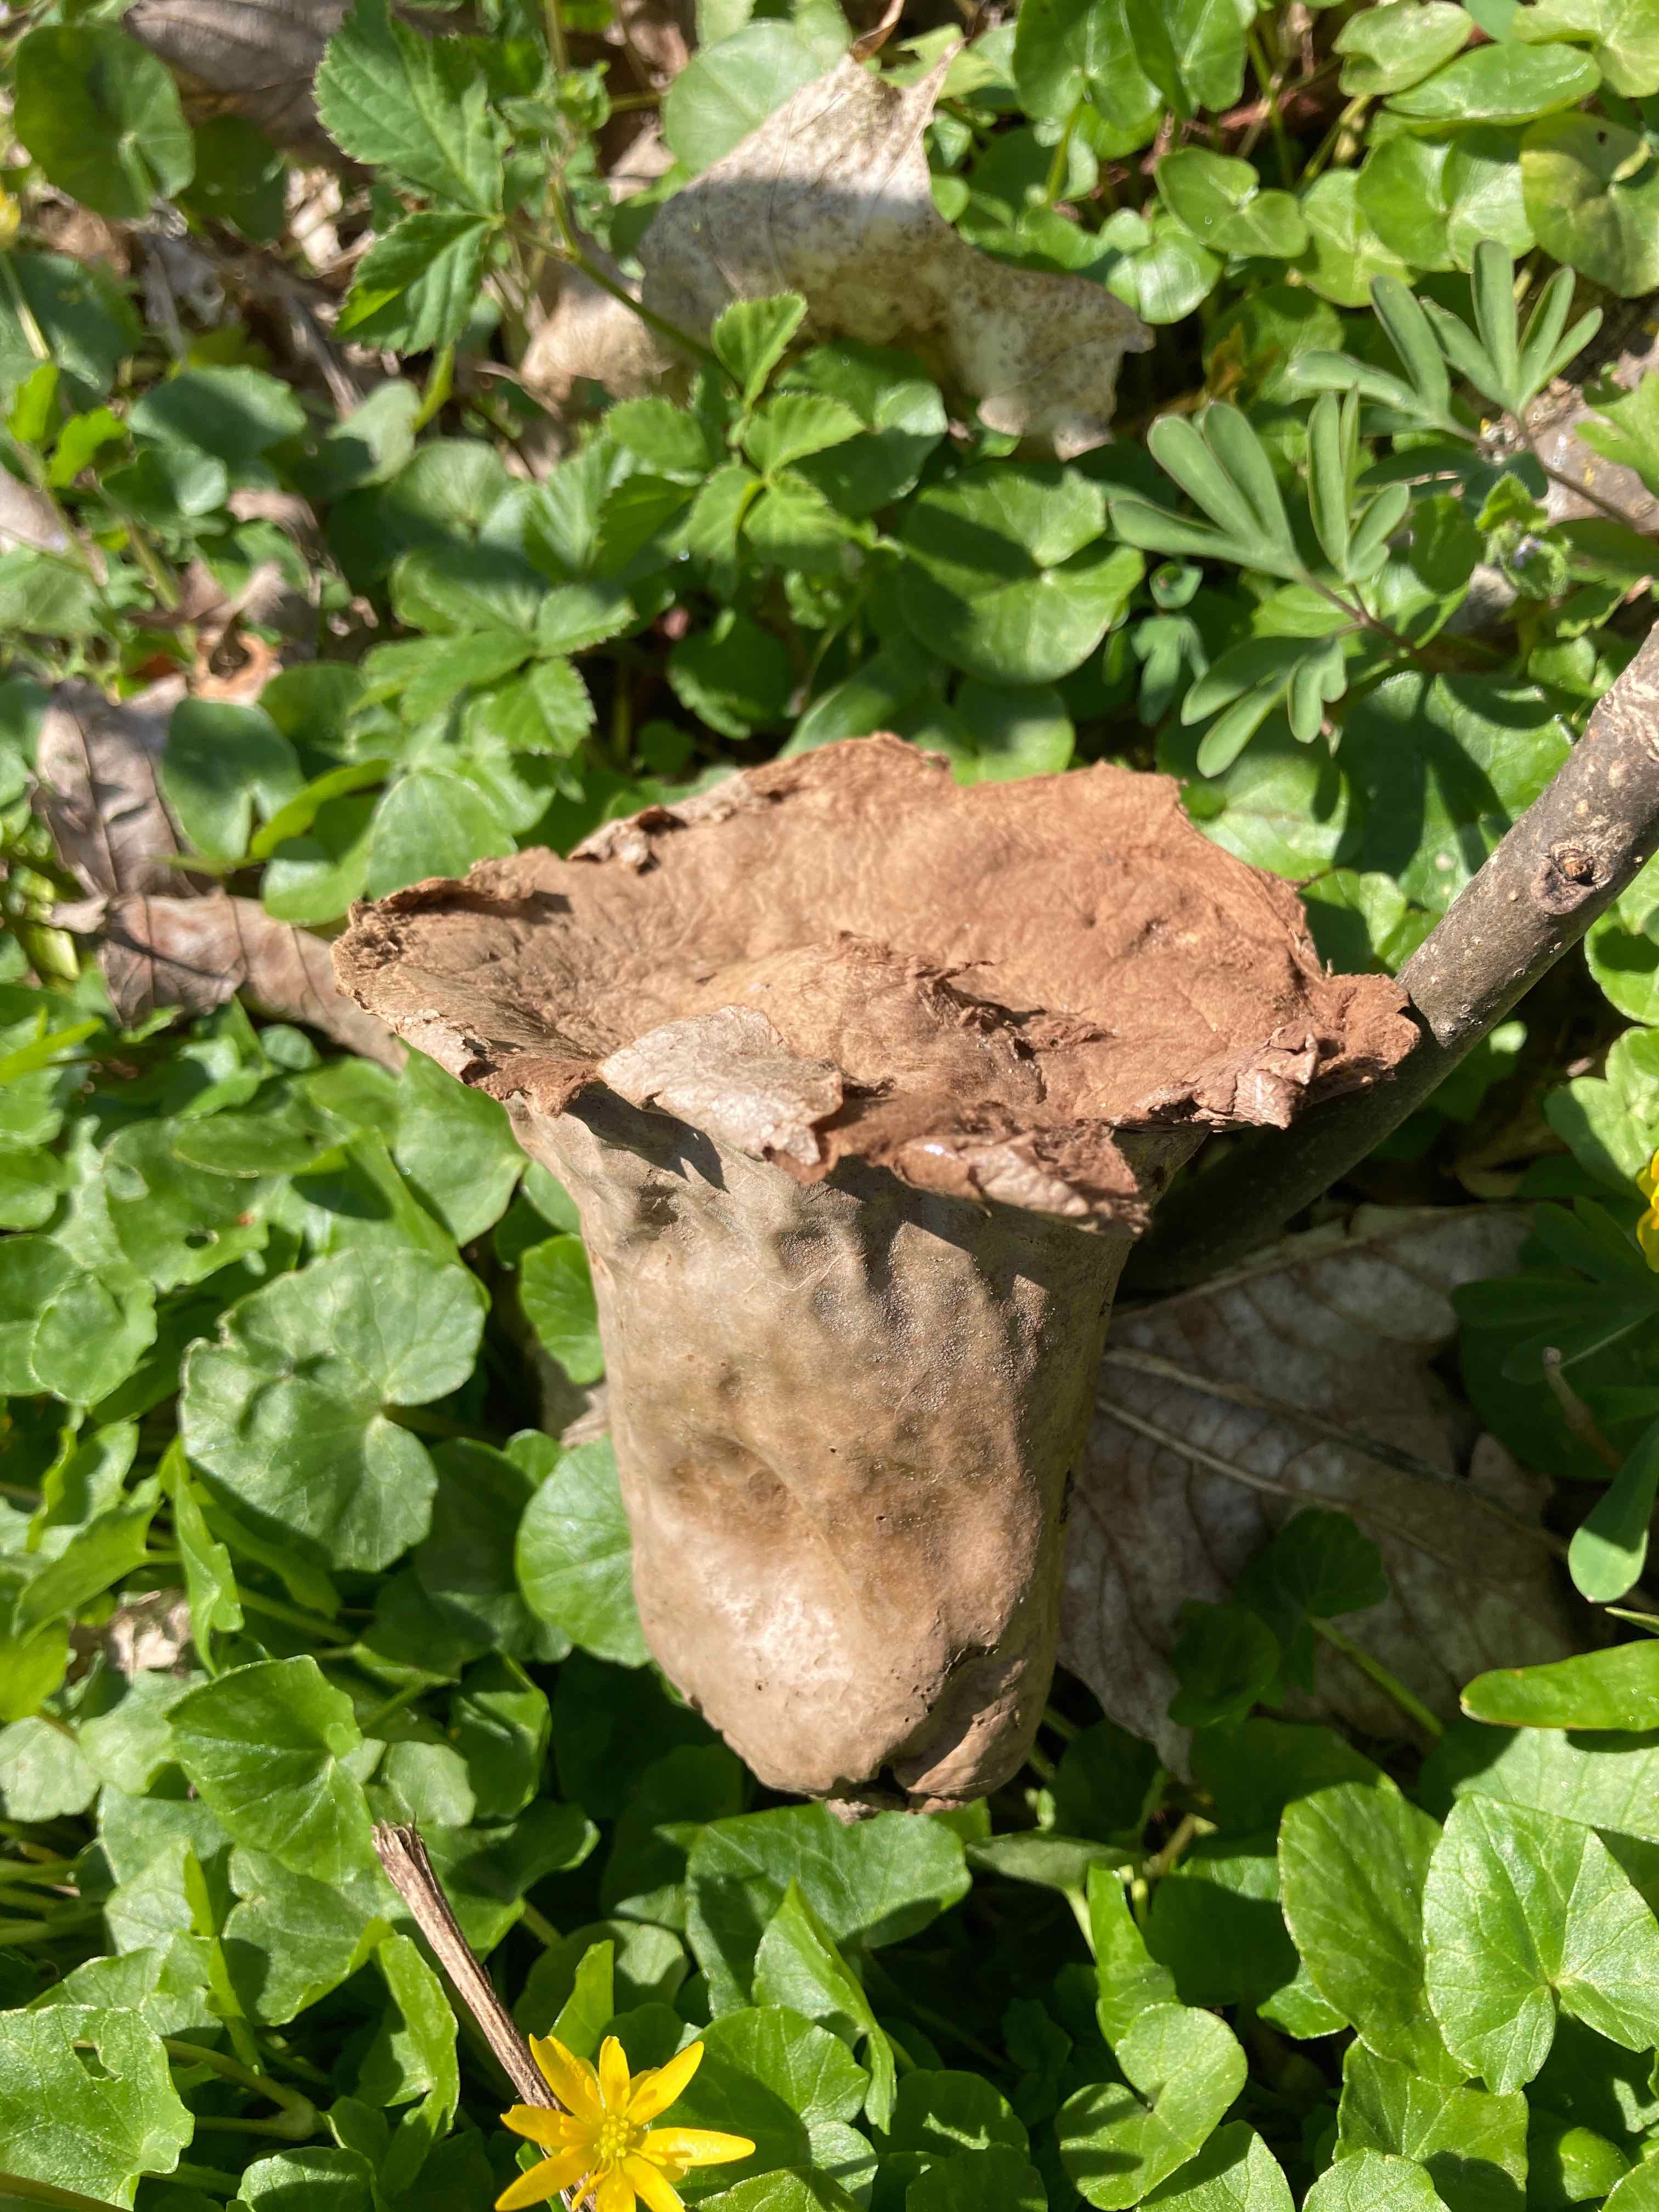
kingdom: Fungi
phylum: Basidiomycota
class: Agaricomycetes
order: Agaricales
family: Lycoperdaceae
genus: Lycoperdon
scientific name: Lycoperdon excipuliforme
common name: højstokket støvbold
